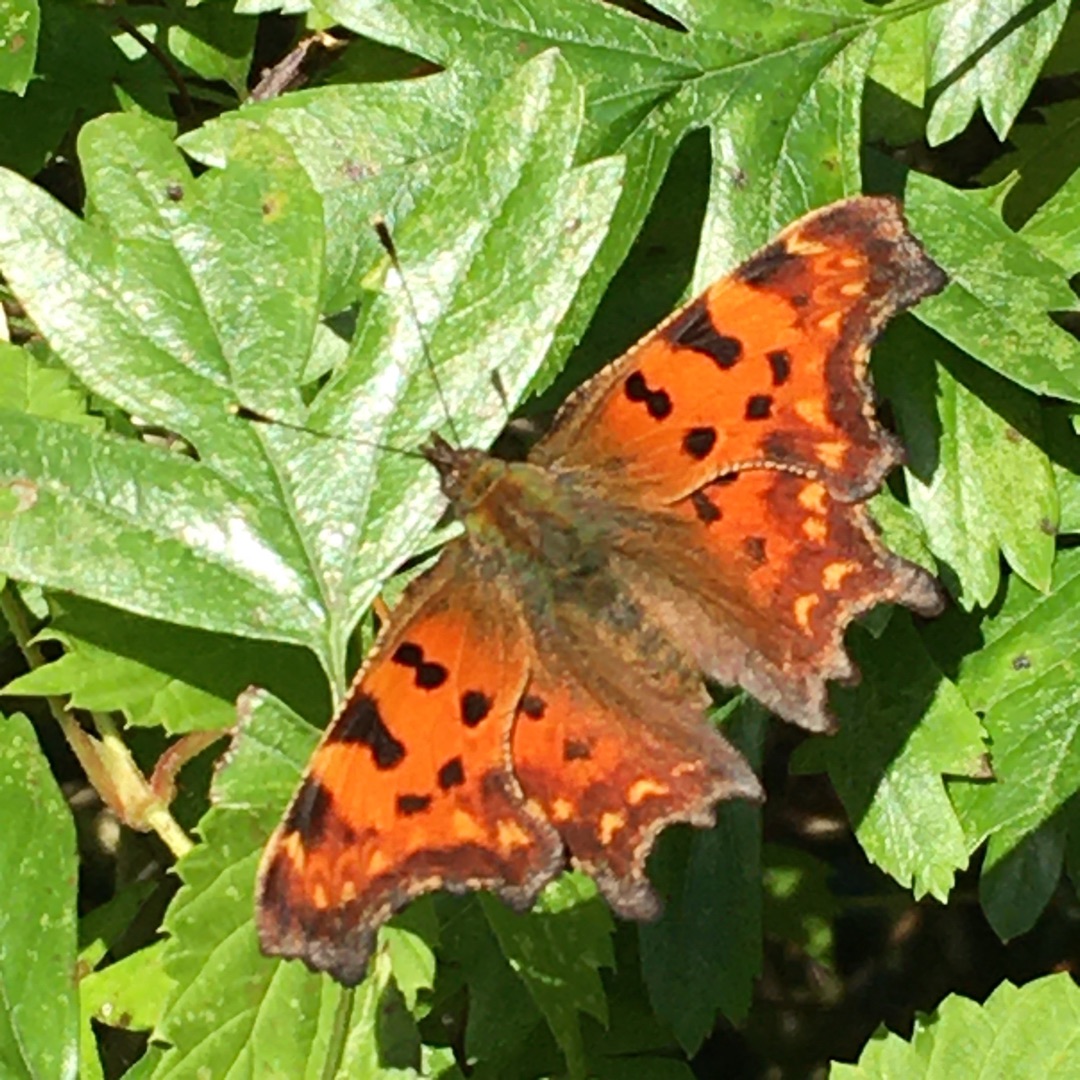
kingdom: Animalia
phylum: Arthropoda
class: Insecta
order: Lepidoptera
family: Nymphalidae
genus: Polygonia
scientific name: Polygonia c-album
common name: Det hvide C
